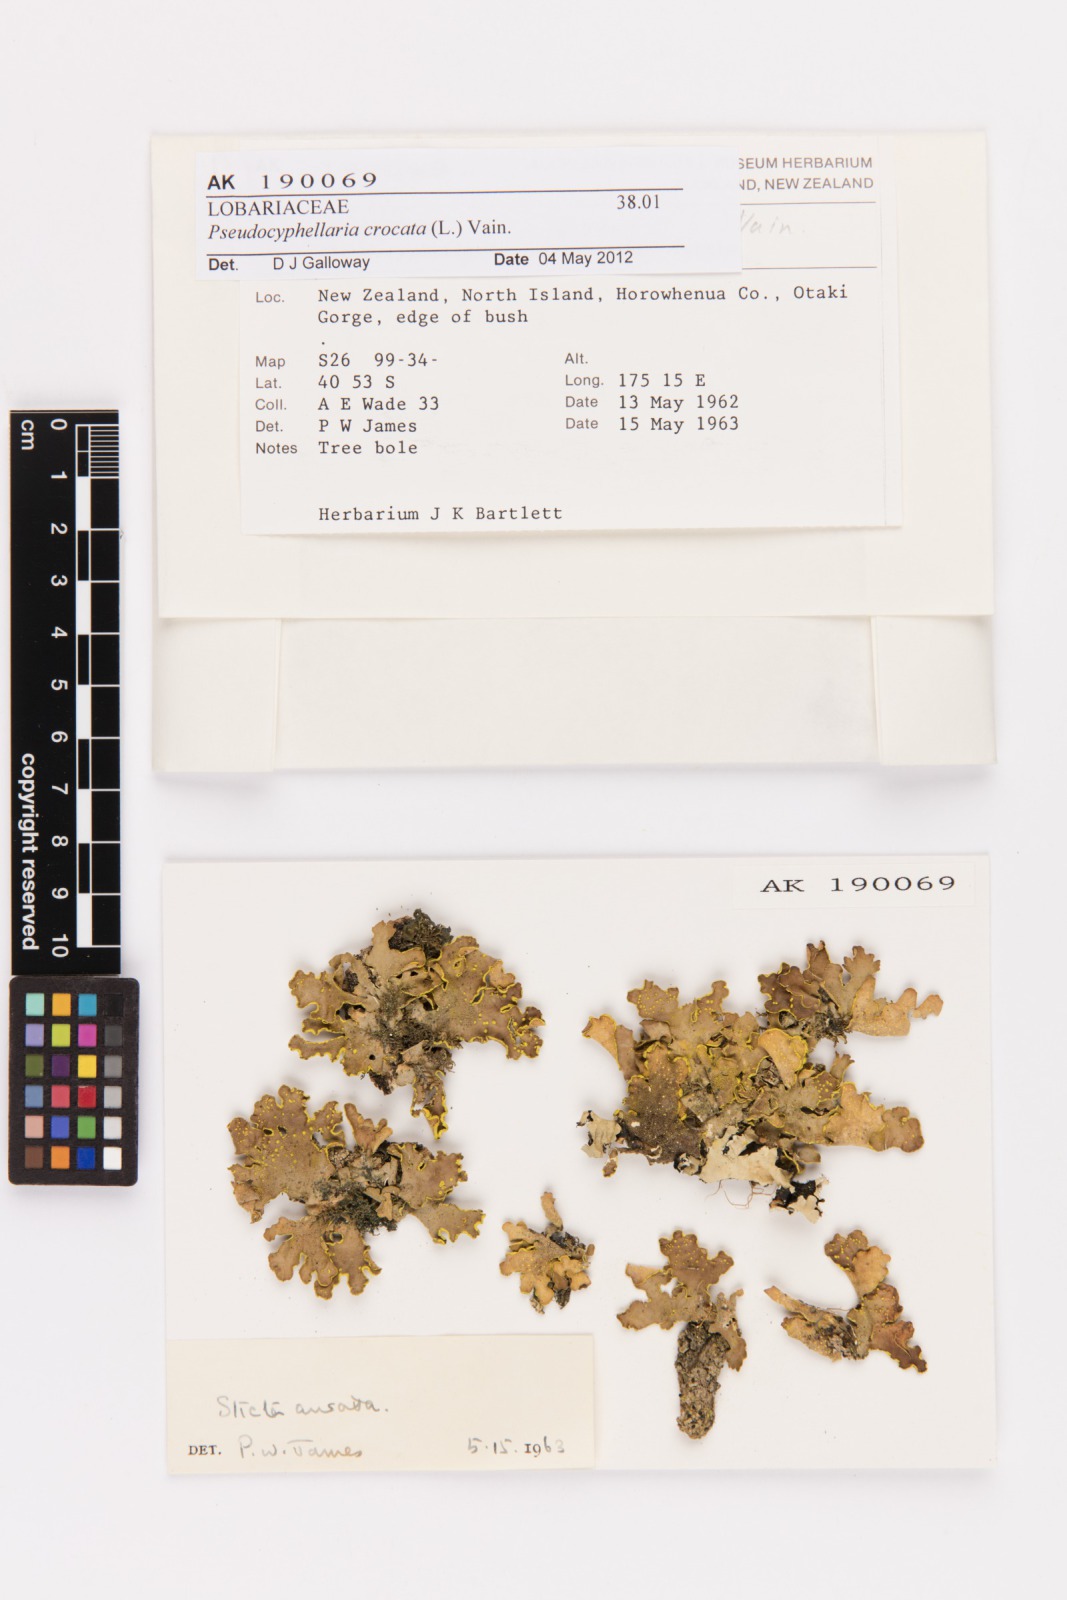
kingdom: Fungi
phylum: Ascomycota
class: Lecanoromycetes
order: Peltigerales
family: Lobariaceae
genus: Pseudocyphellaria
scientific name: Pseudocyphellaria crocata
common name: Golden specklebelly
